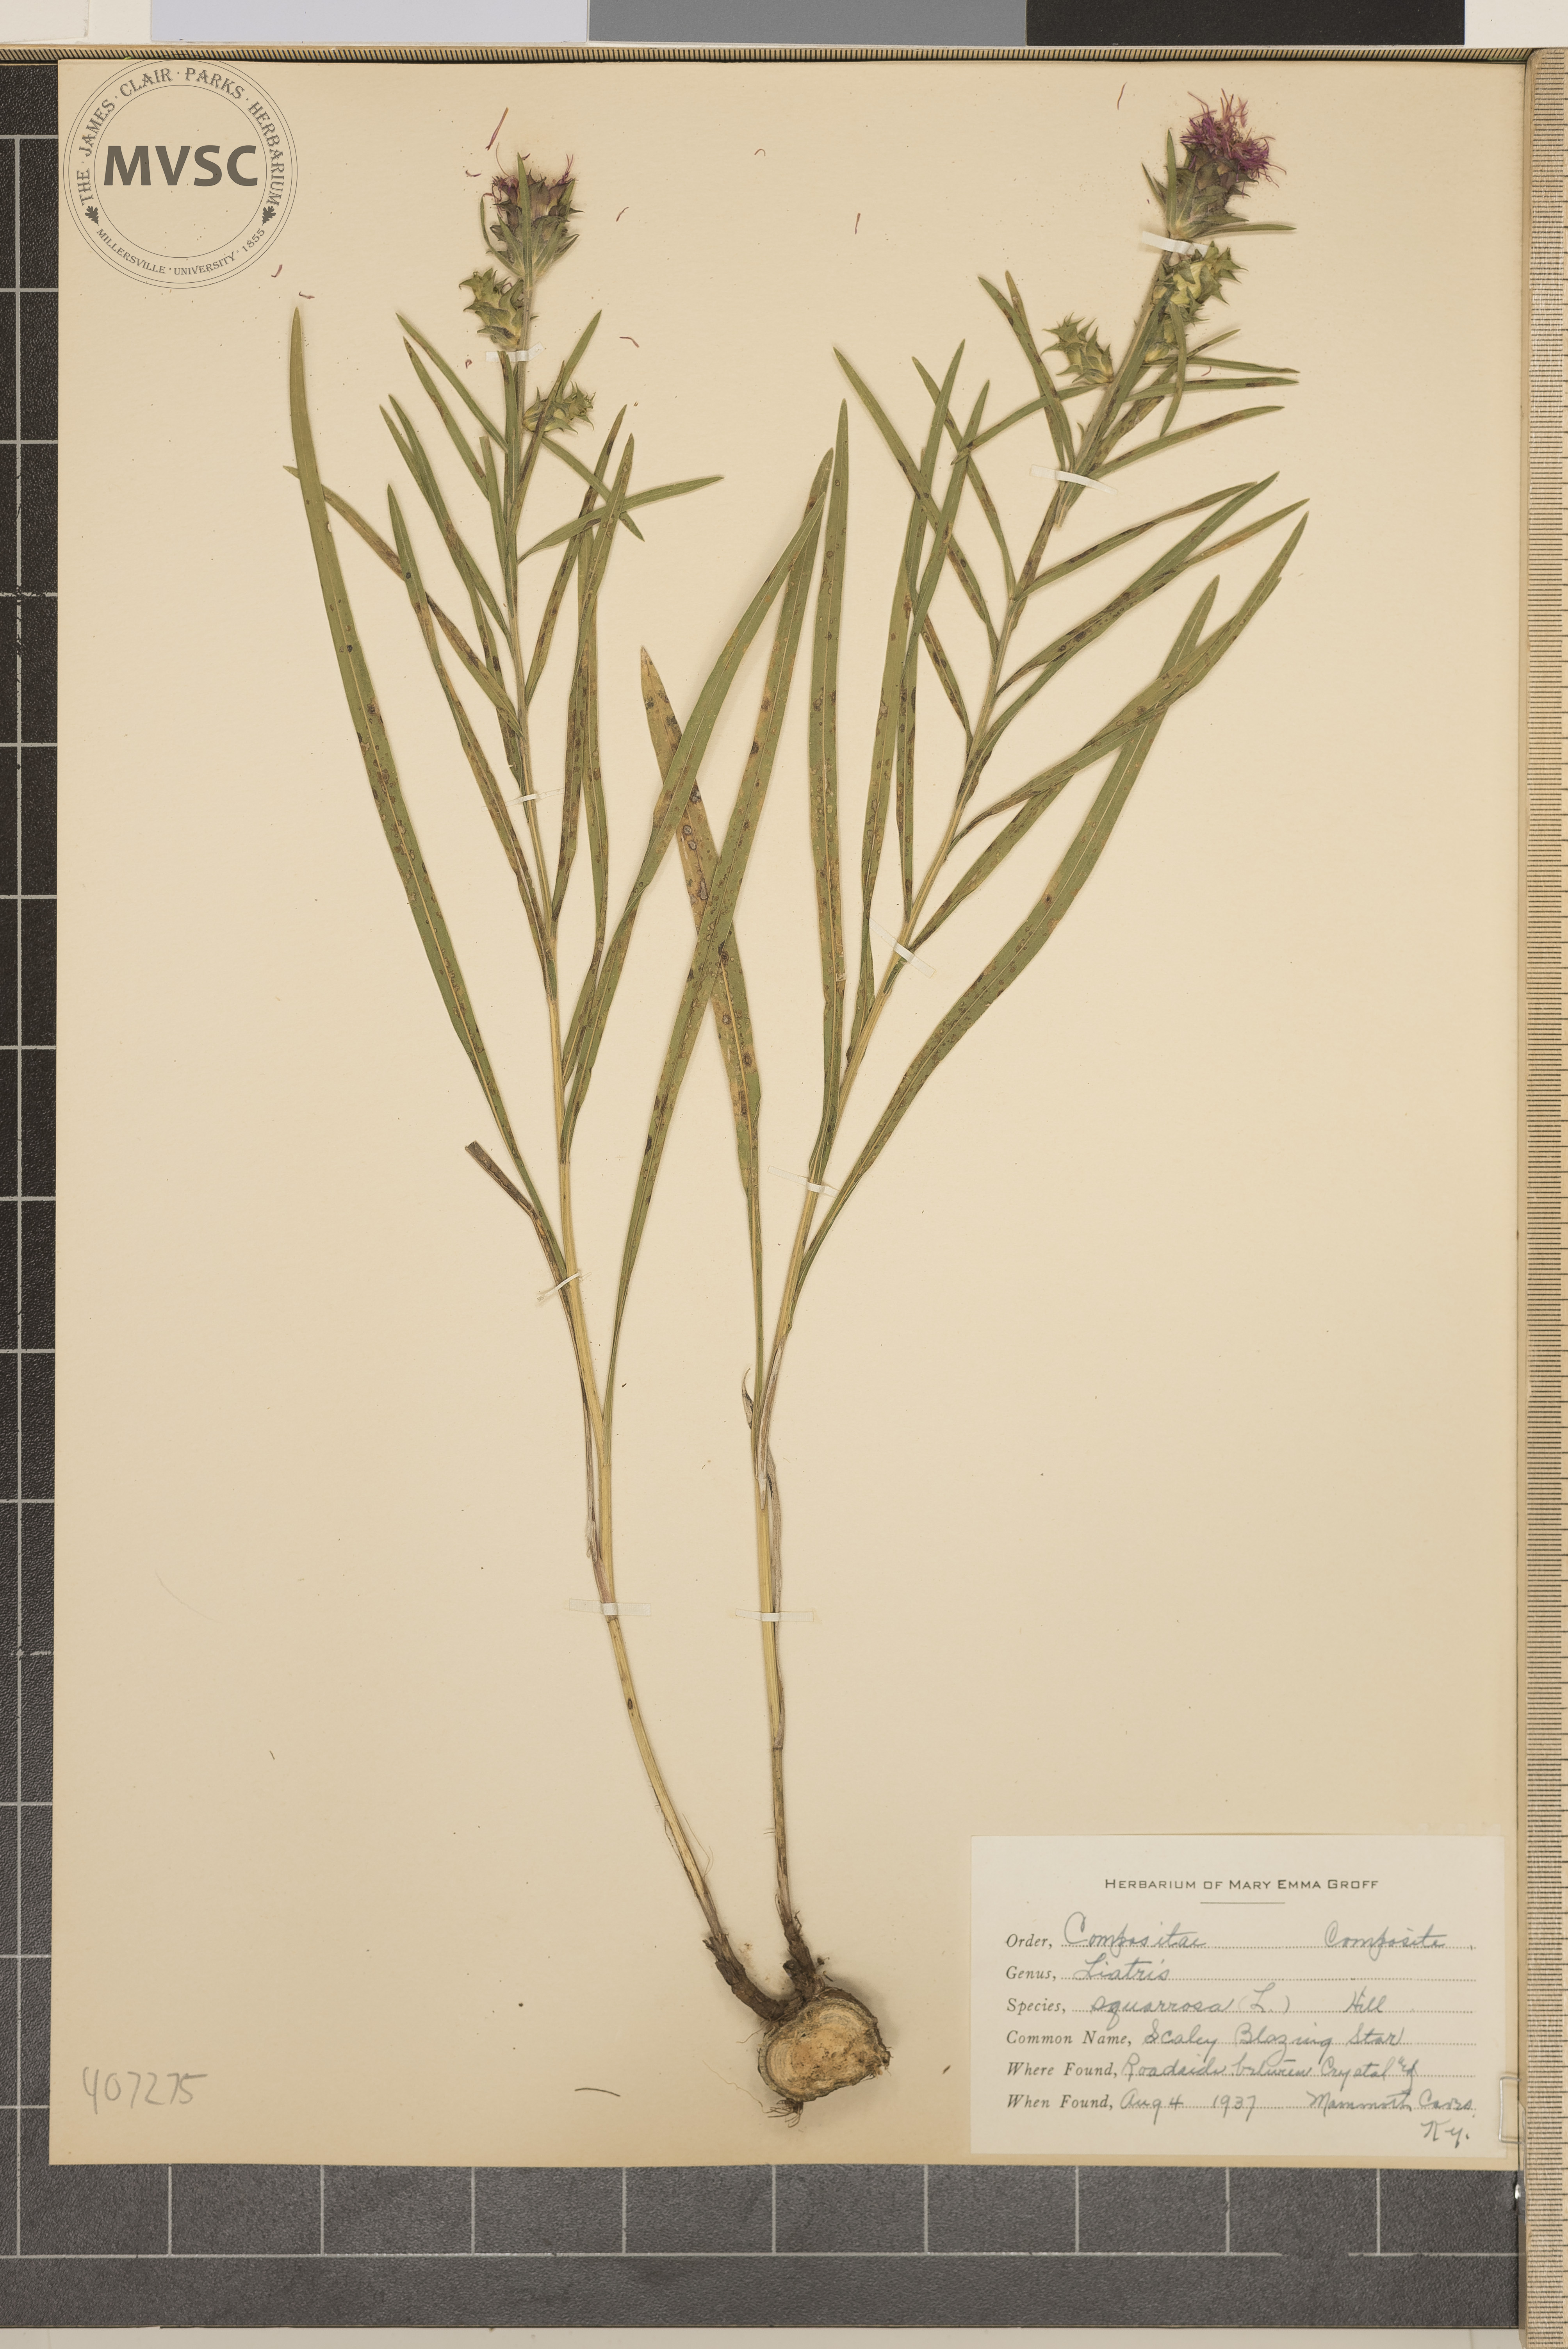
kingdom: Plantae
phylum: Tracheophyta
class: Magnoliopsida
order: Asterales
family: Asteraceae
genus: Liatris
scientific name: Liatris squarrosa
